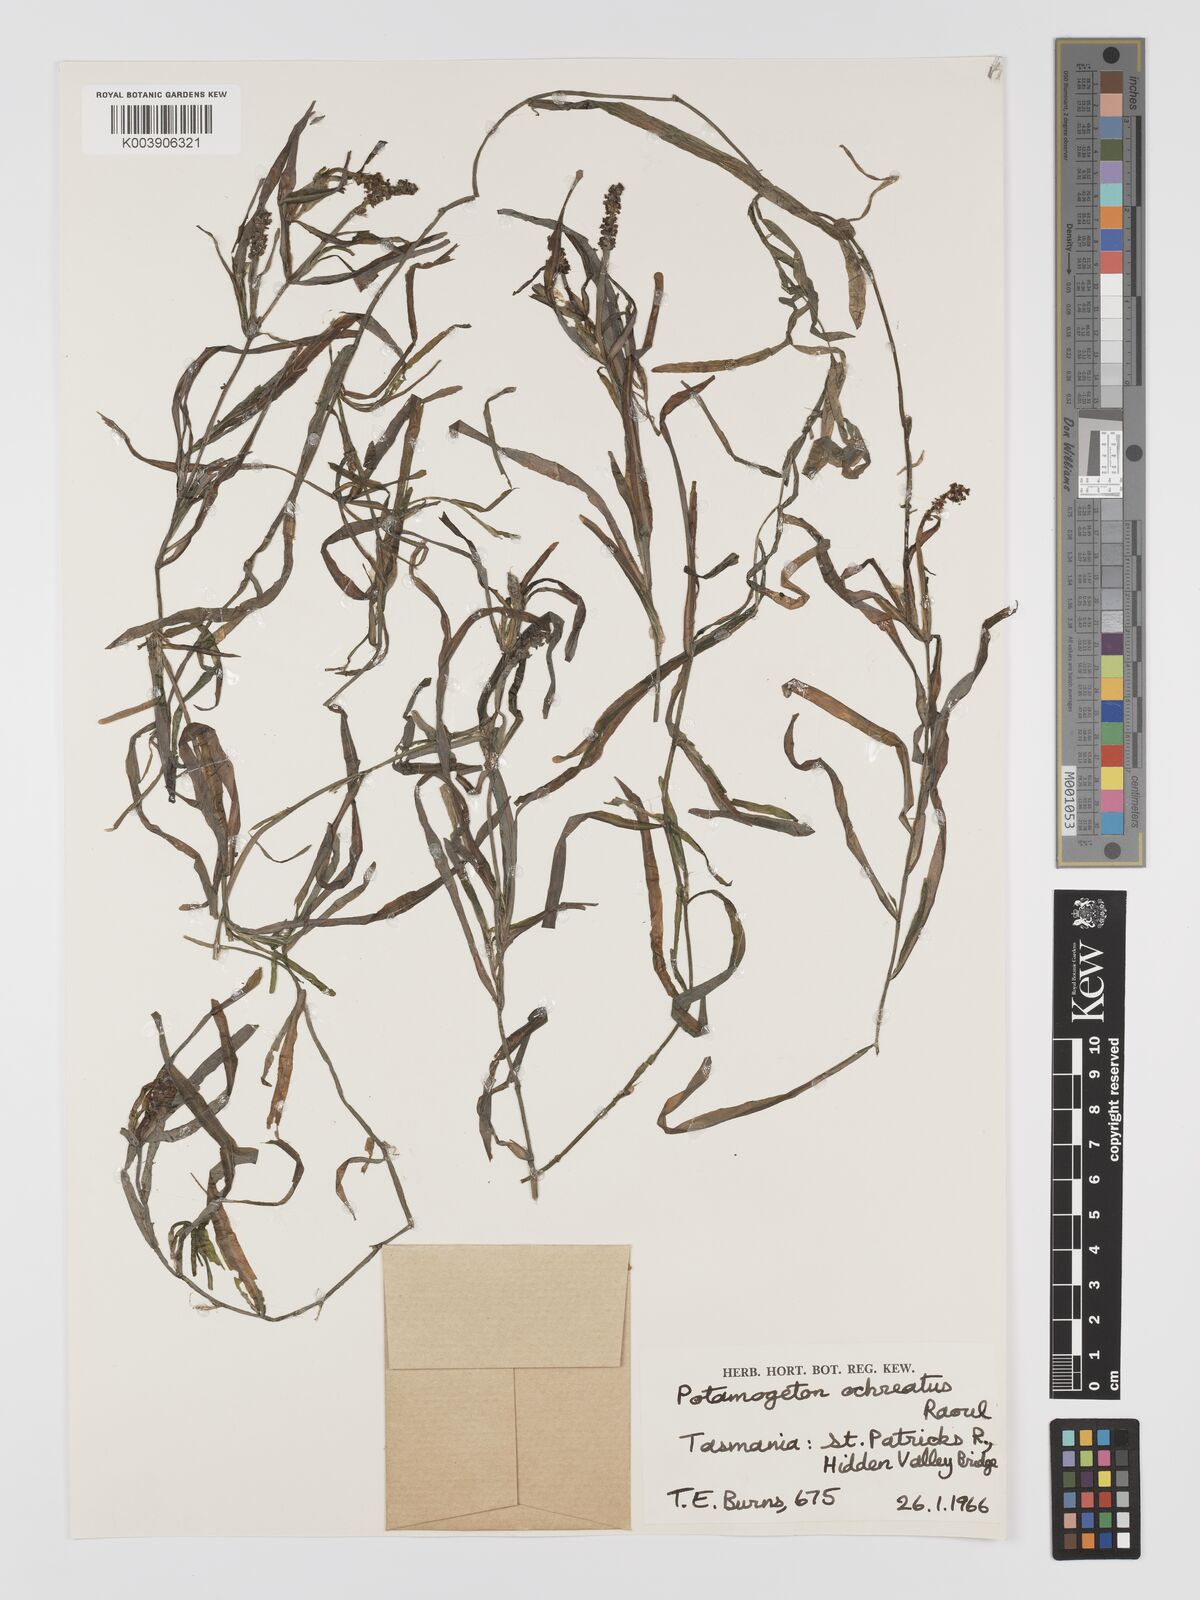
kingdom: Plantae
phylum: Tracheophyta
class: Liliopsida
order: Alismatales
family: Potamogetonaceae
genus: Potamogeton
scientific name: Potamogeton ochreatus
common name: Blunt pondweed
